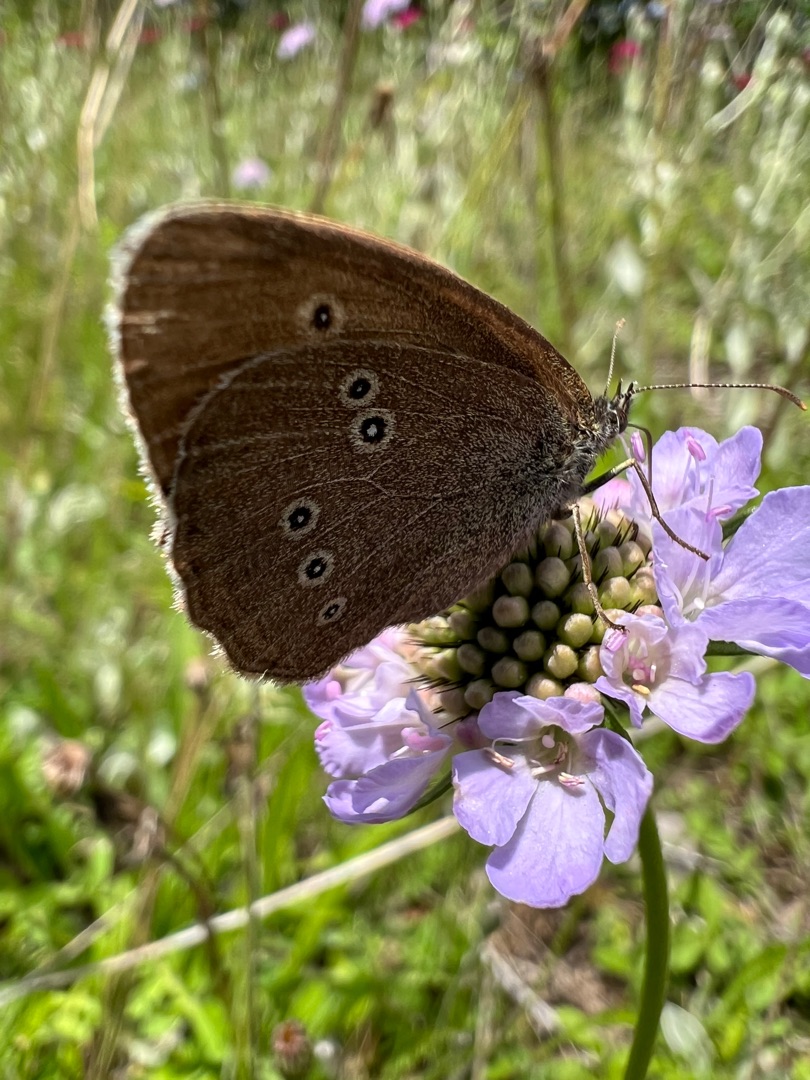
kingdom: Animalia
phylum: Arthropoda
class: Insecta
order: Lepidoptera
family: Nymphalidae
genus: Aphantopus
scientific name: Aphantopus hyperantus
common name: Engrandøje
